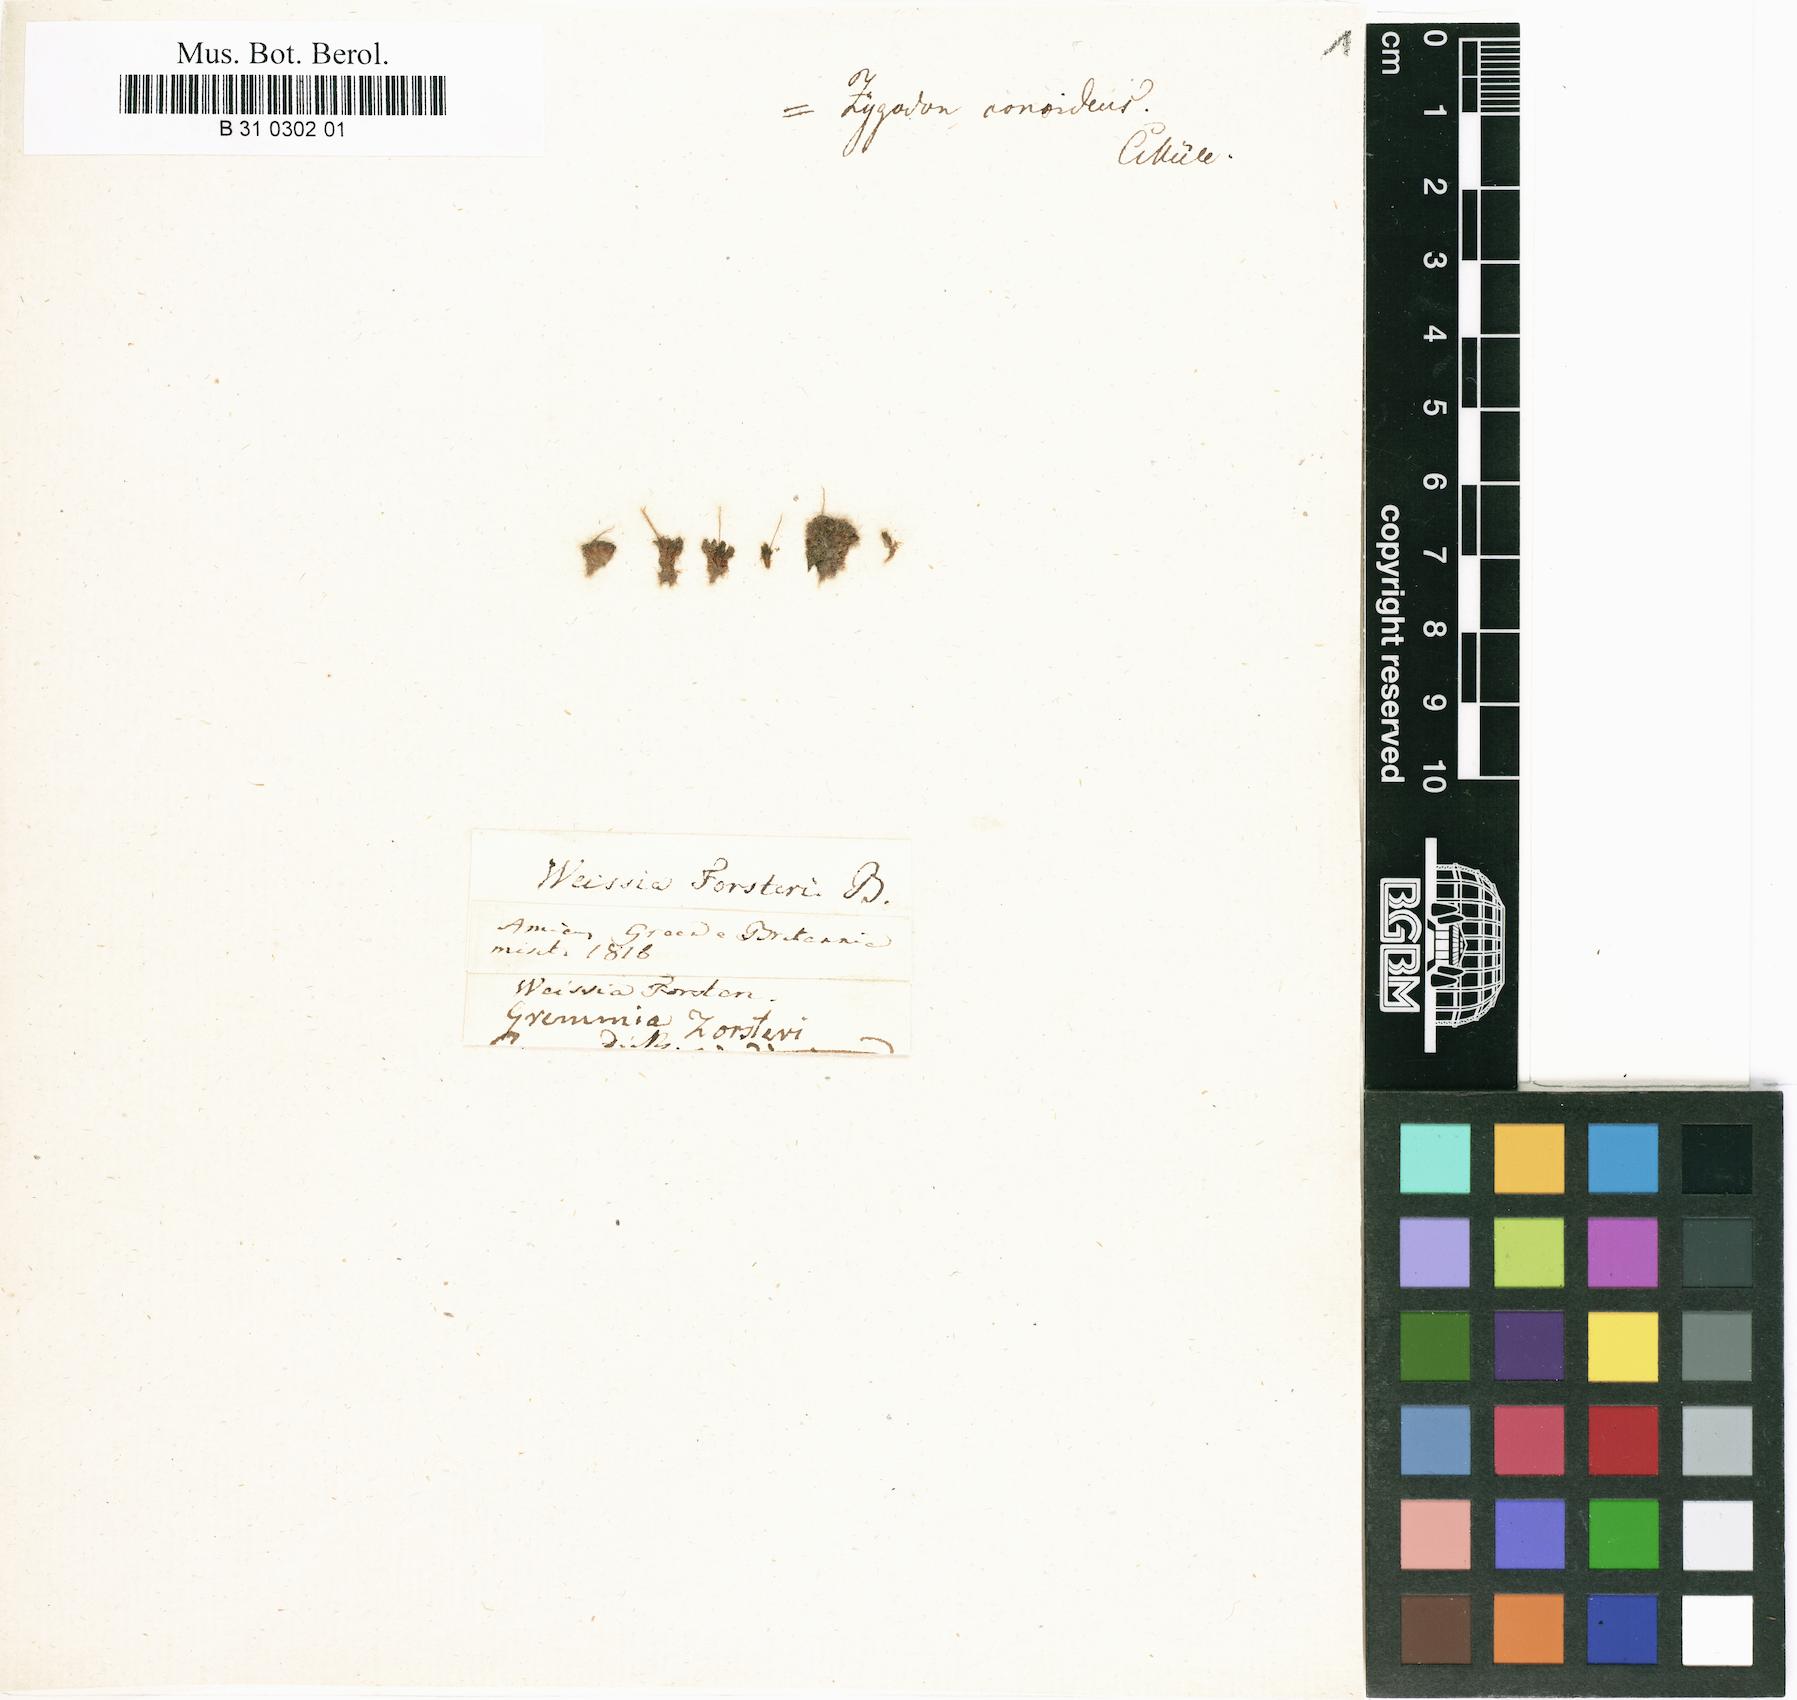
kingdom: Plantae
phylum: Bryophyta
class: Bryopsida
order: Orthotrichales
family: Orthotrichaceae
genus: Codonoblepharon
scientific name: Codonoblepharon forsteri
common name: Knothole moss
